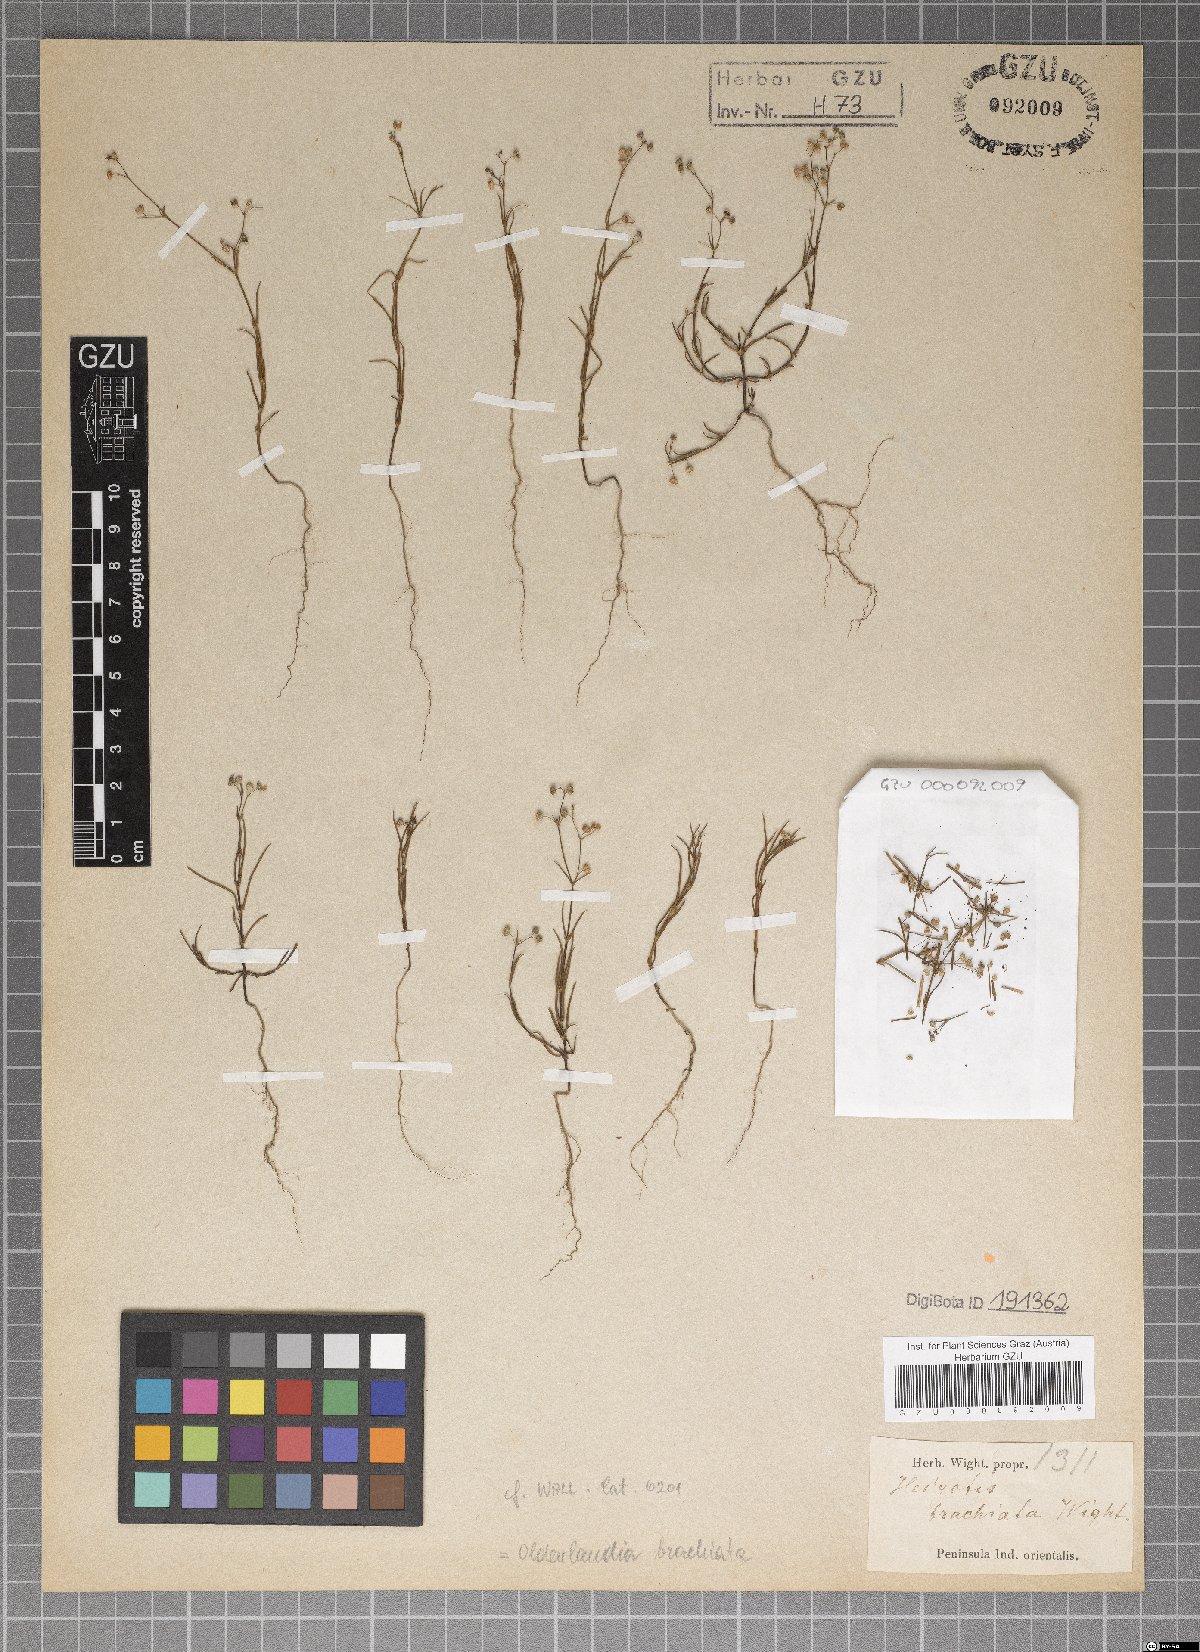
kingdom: Plantae
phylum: Tracheophyta
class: Magnoliopsida
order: Gentianales
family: Rubiaceae
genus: Kohautia
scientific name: Kohautia aspera
